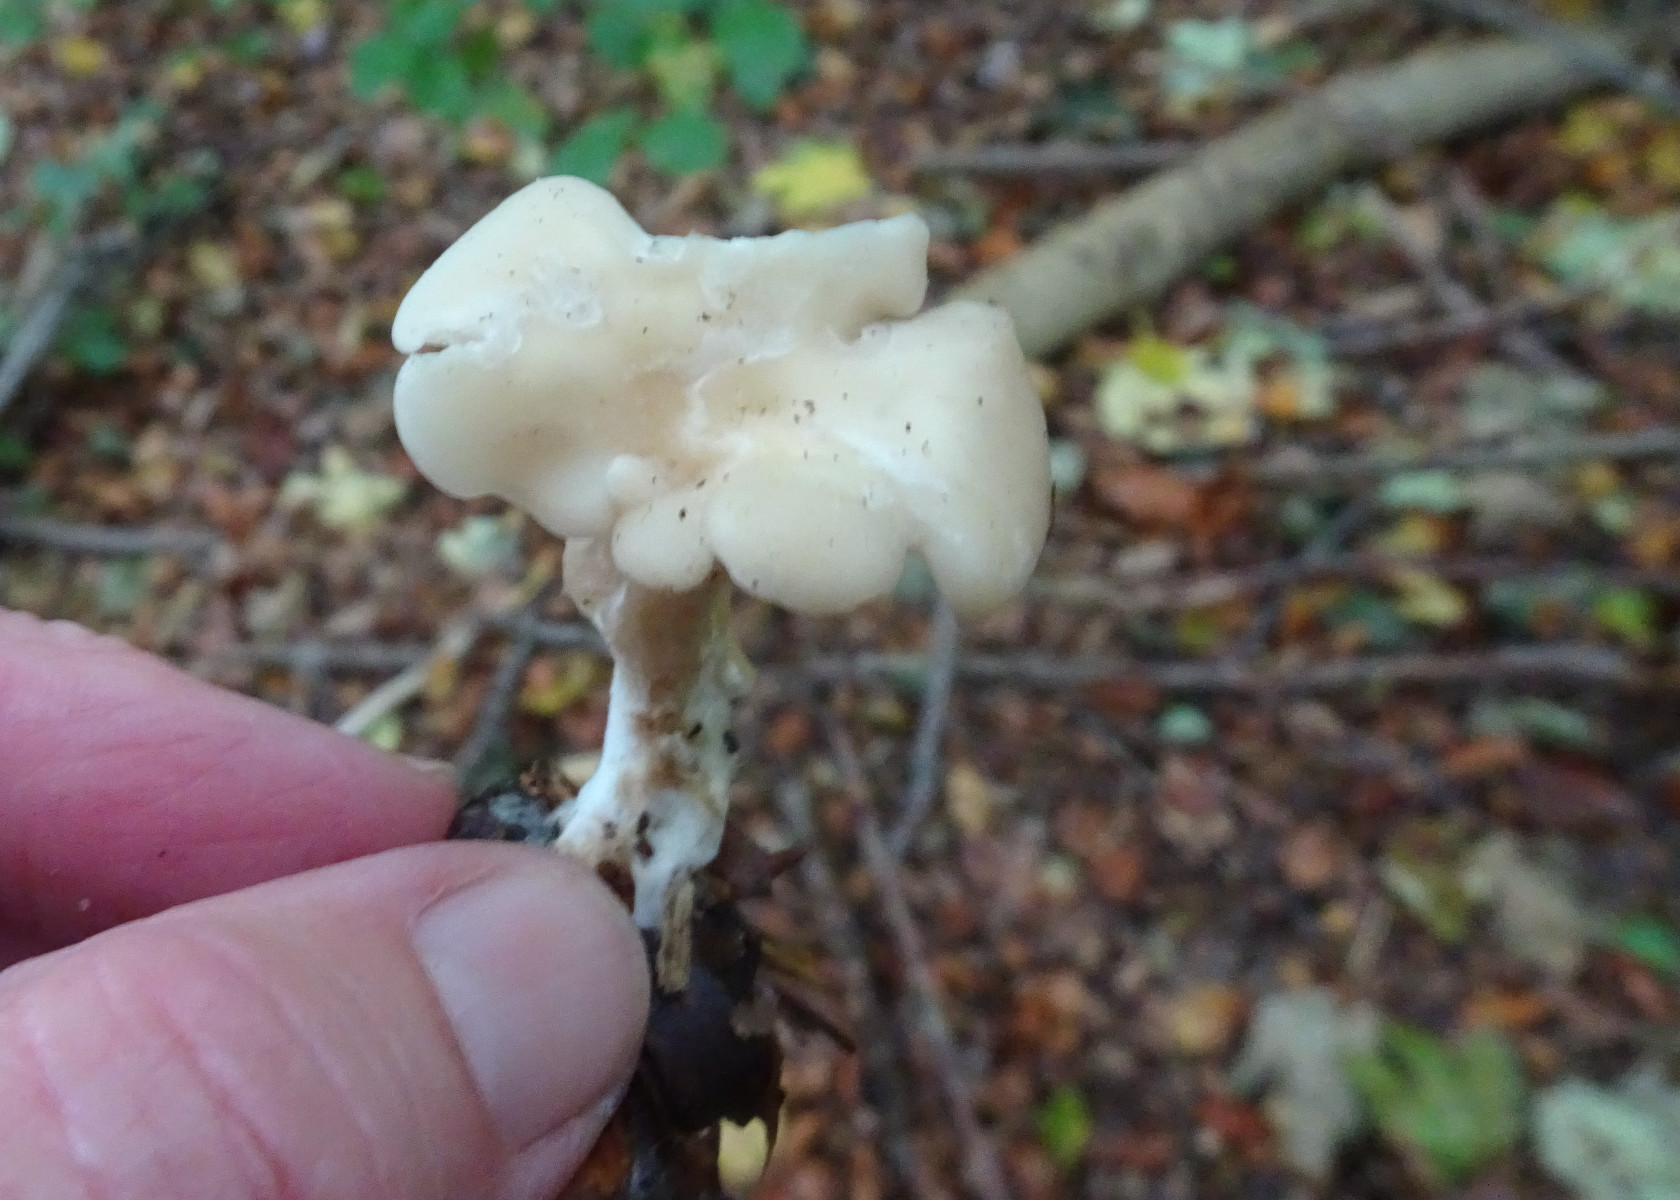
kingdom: Fungi
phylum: Basidiomycota
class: Agaricomycetes
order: Agaricales
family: Tricholomataceae
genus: Clitocybe
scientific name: Clitocybe
